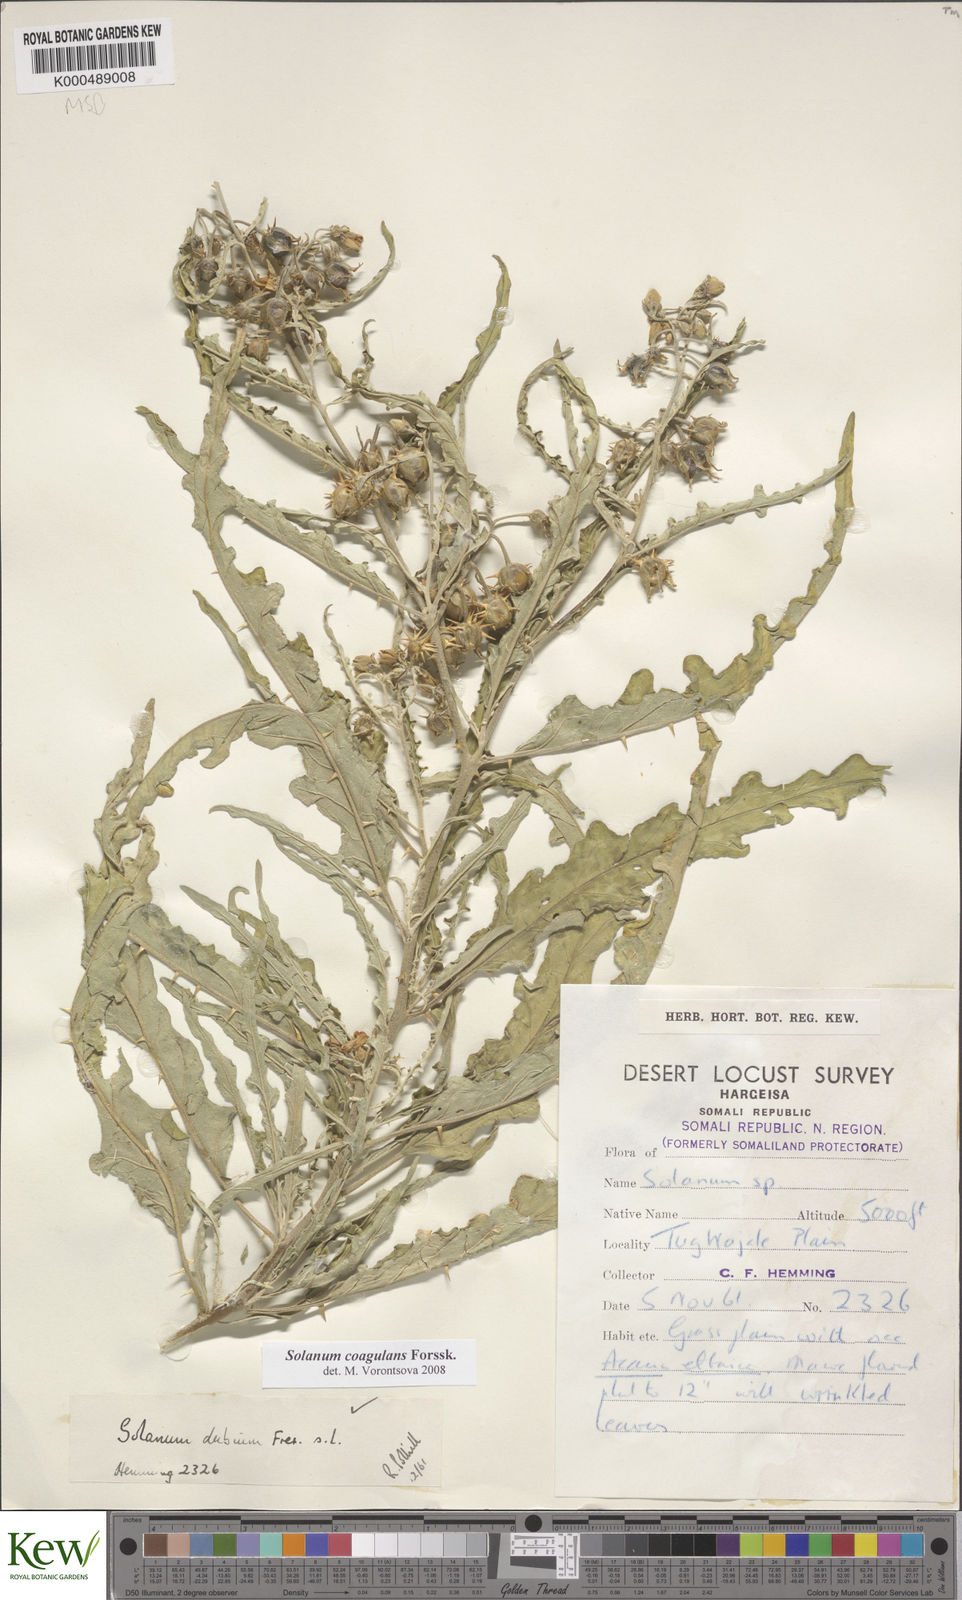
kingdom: Plantae
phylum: Tracheophyta
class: Magnoliopsida
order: Solanales
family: Solanaceae
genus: Solanum
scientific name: Solanum coagulans
